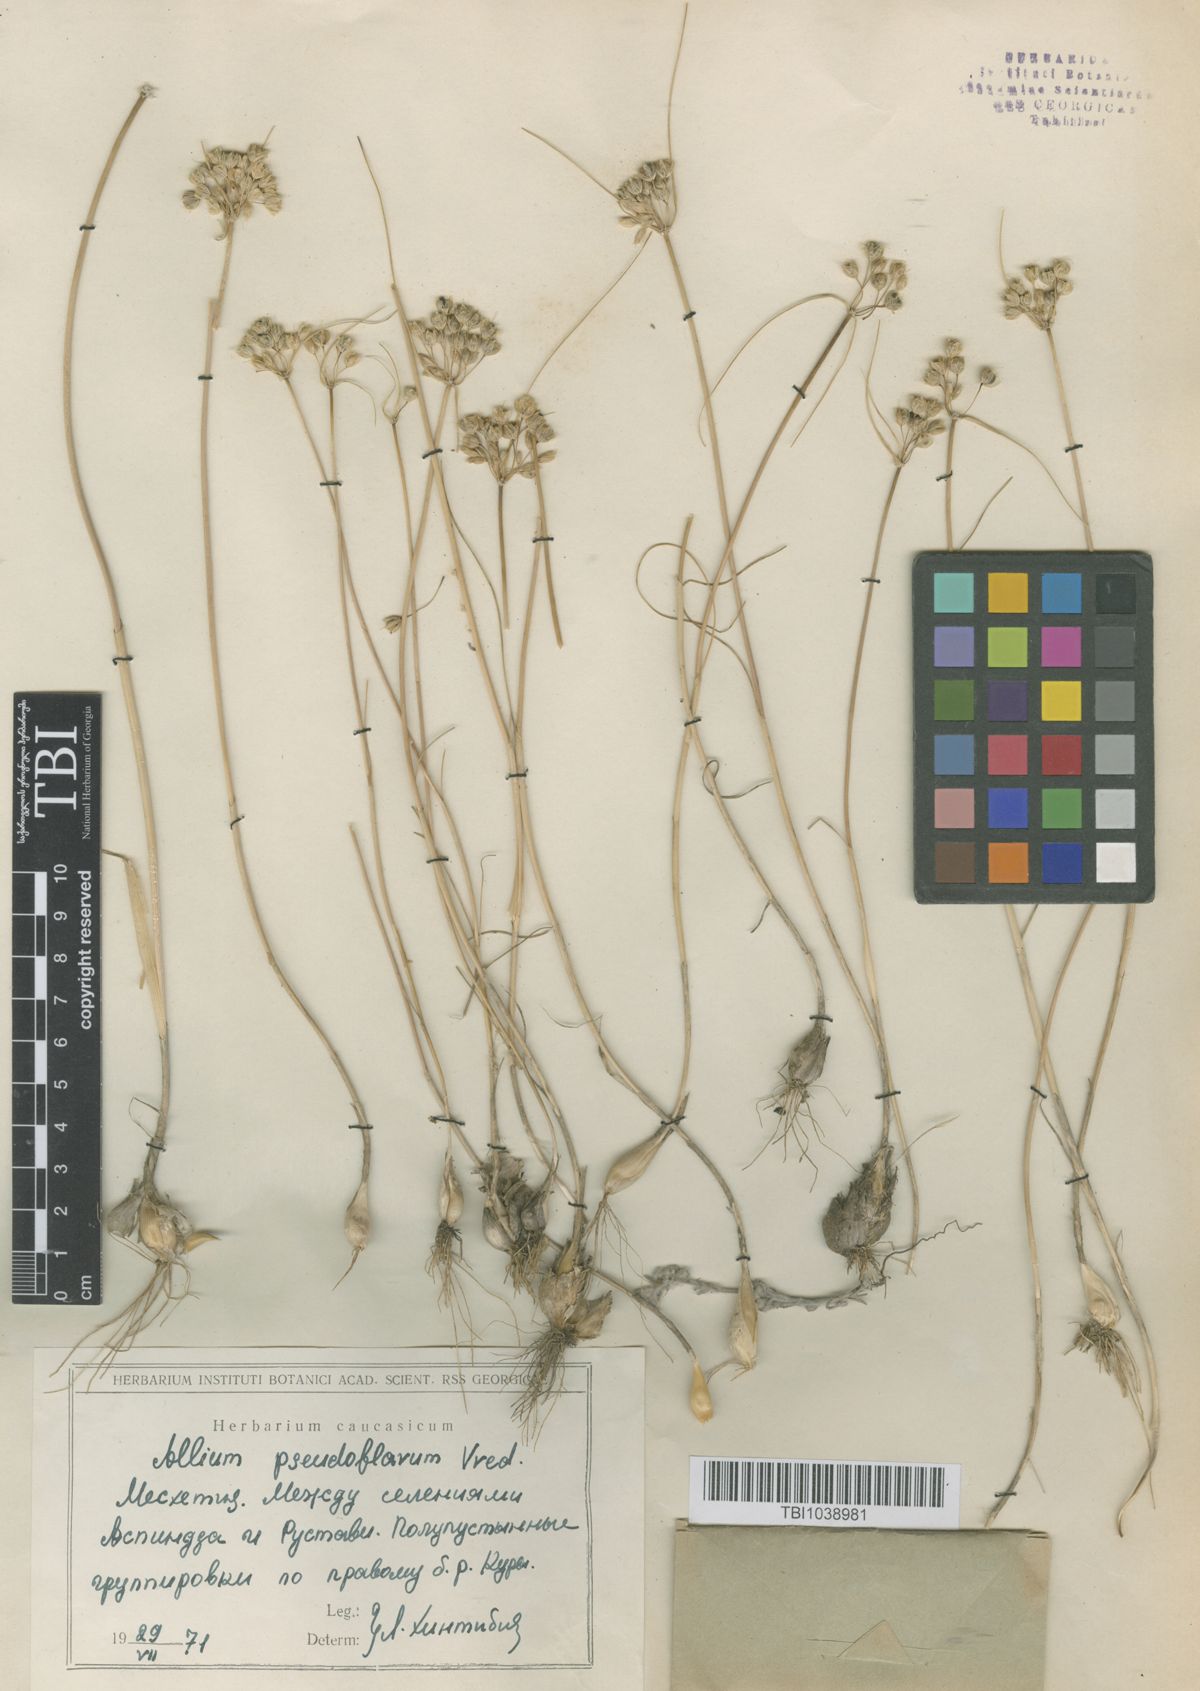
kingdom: Plantae
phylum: Tracheophyta
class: Liliopsida
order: Asparagales
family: Amaryllidaceae
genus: Allium
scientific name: Allium pseudoflavum
